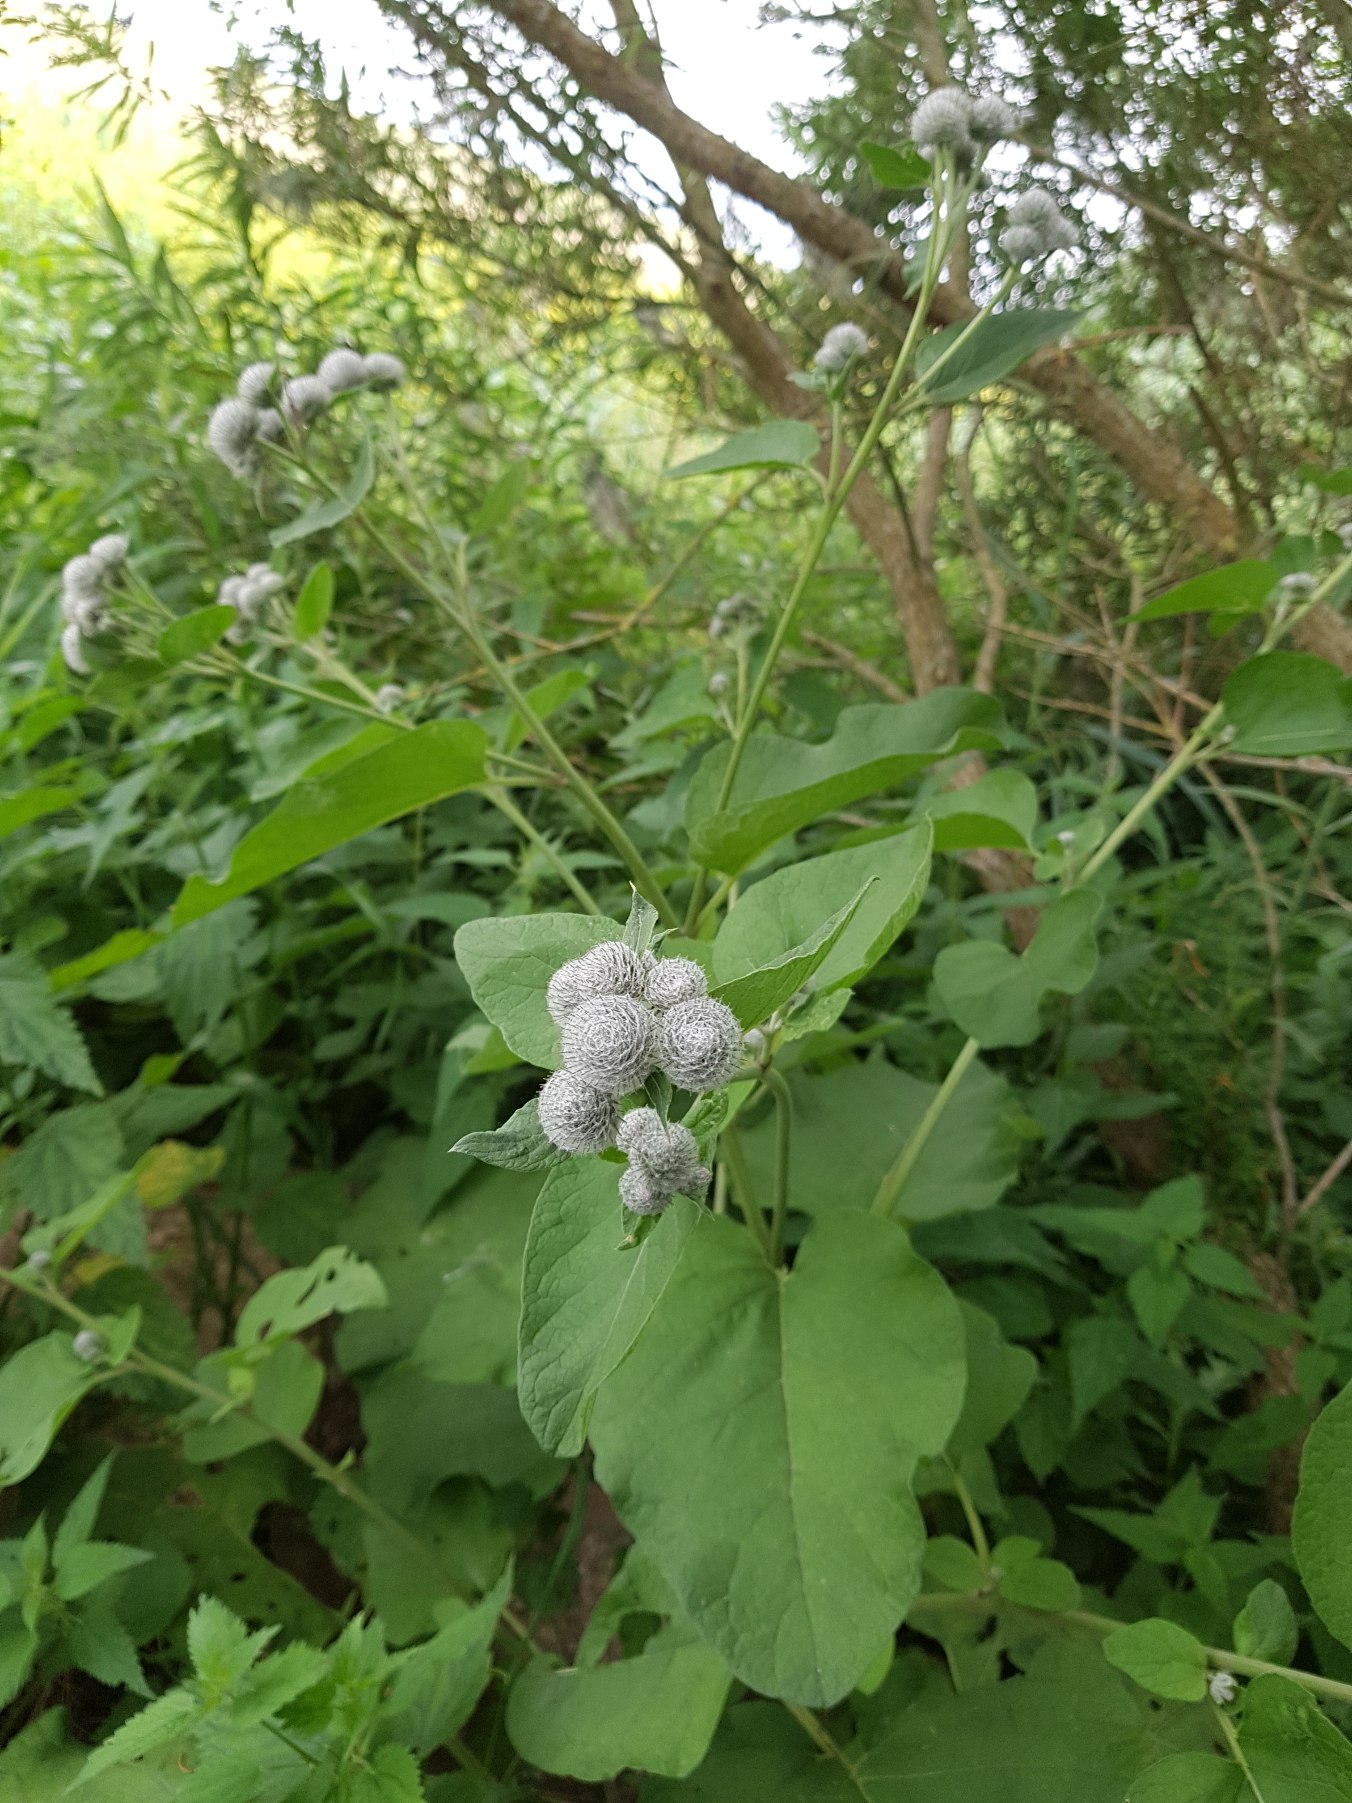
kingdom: Plantae
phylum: Tracheophyta
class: Magnoliopsida
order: Asterales
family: Asteraceae
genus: Arctium
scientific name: Arctium tomentosum
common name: Filtet burre
